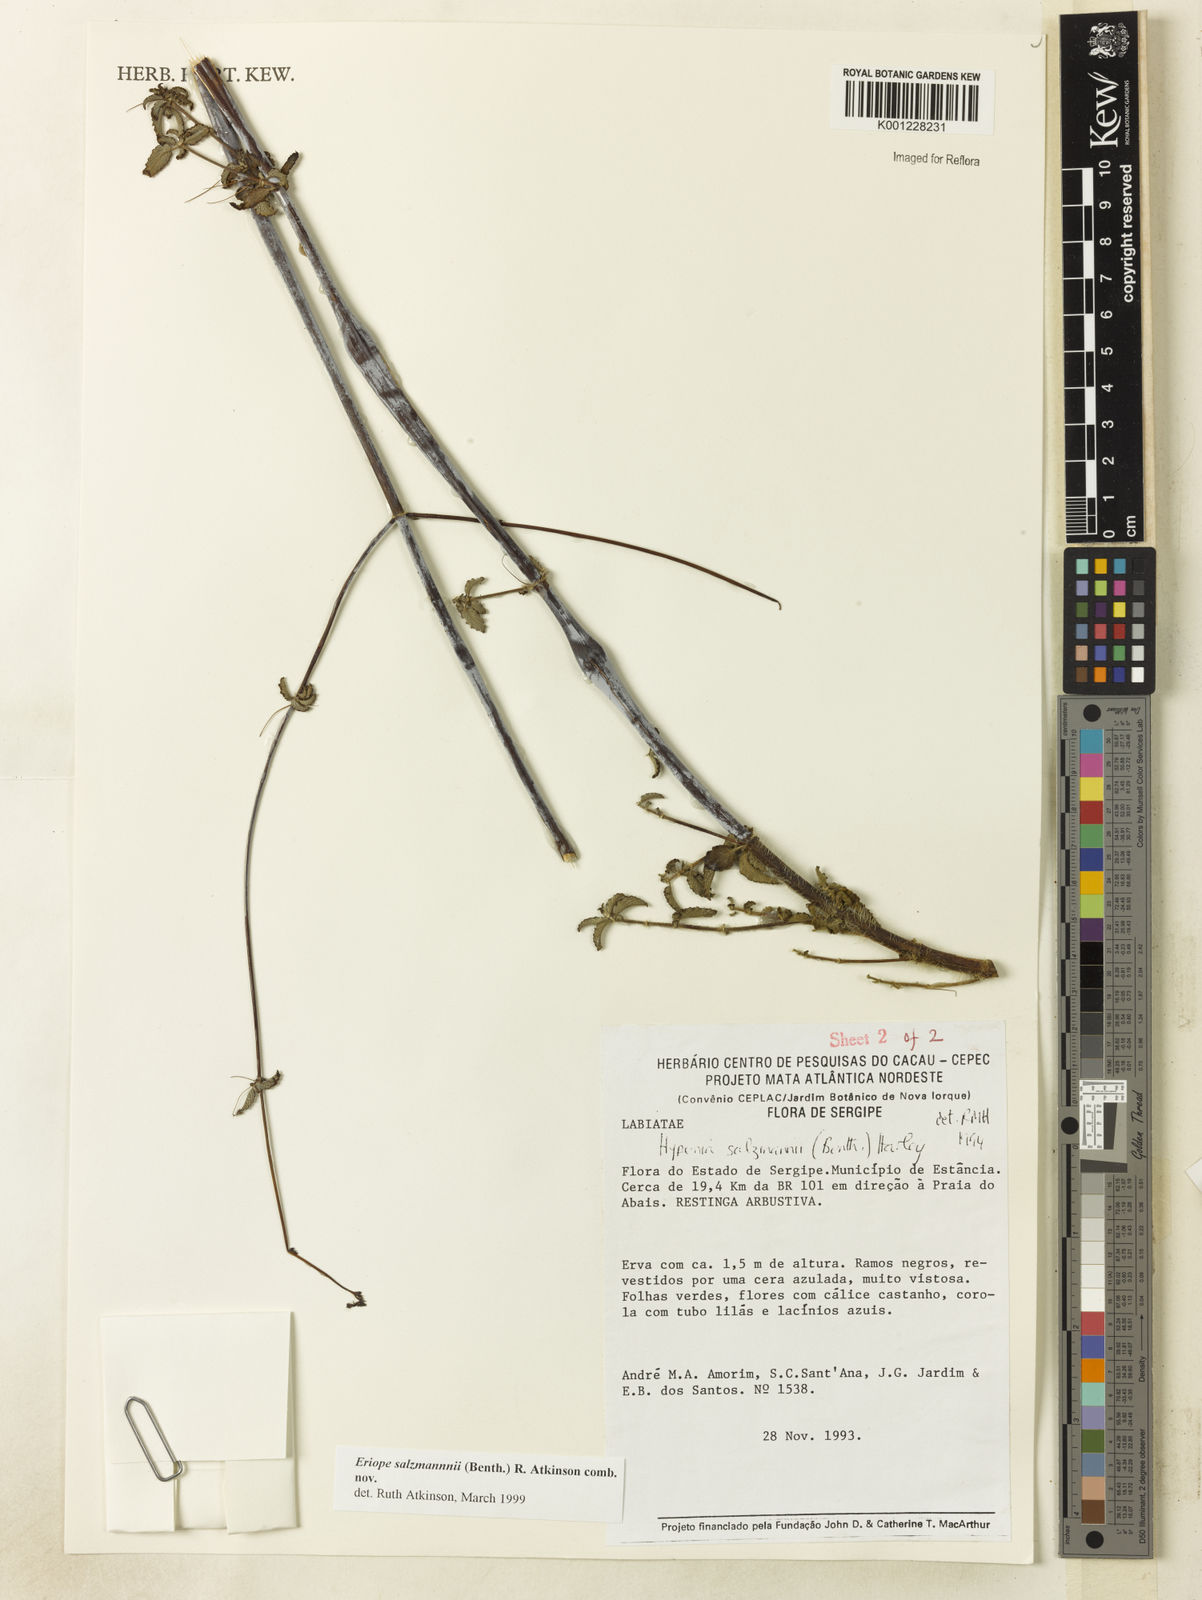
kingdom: Plantae
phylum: Tracheophyta
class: Magnoliopsida
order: Lamiales
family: Lamiaceae
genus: Hypenia
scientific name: Hypenia salzmannii
